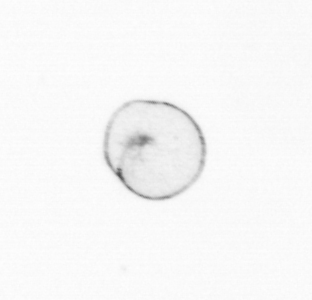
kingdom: Chromista
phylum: Myzozoa
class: Dinophyceae
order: Noctilucales
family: Noctilucaceae
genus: Noctiluca
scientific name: Noctiluca scintillans
